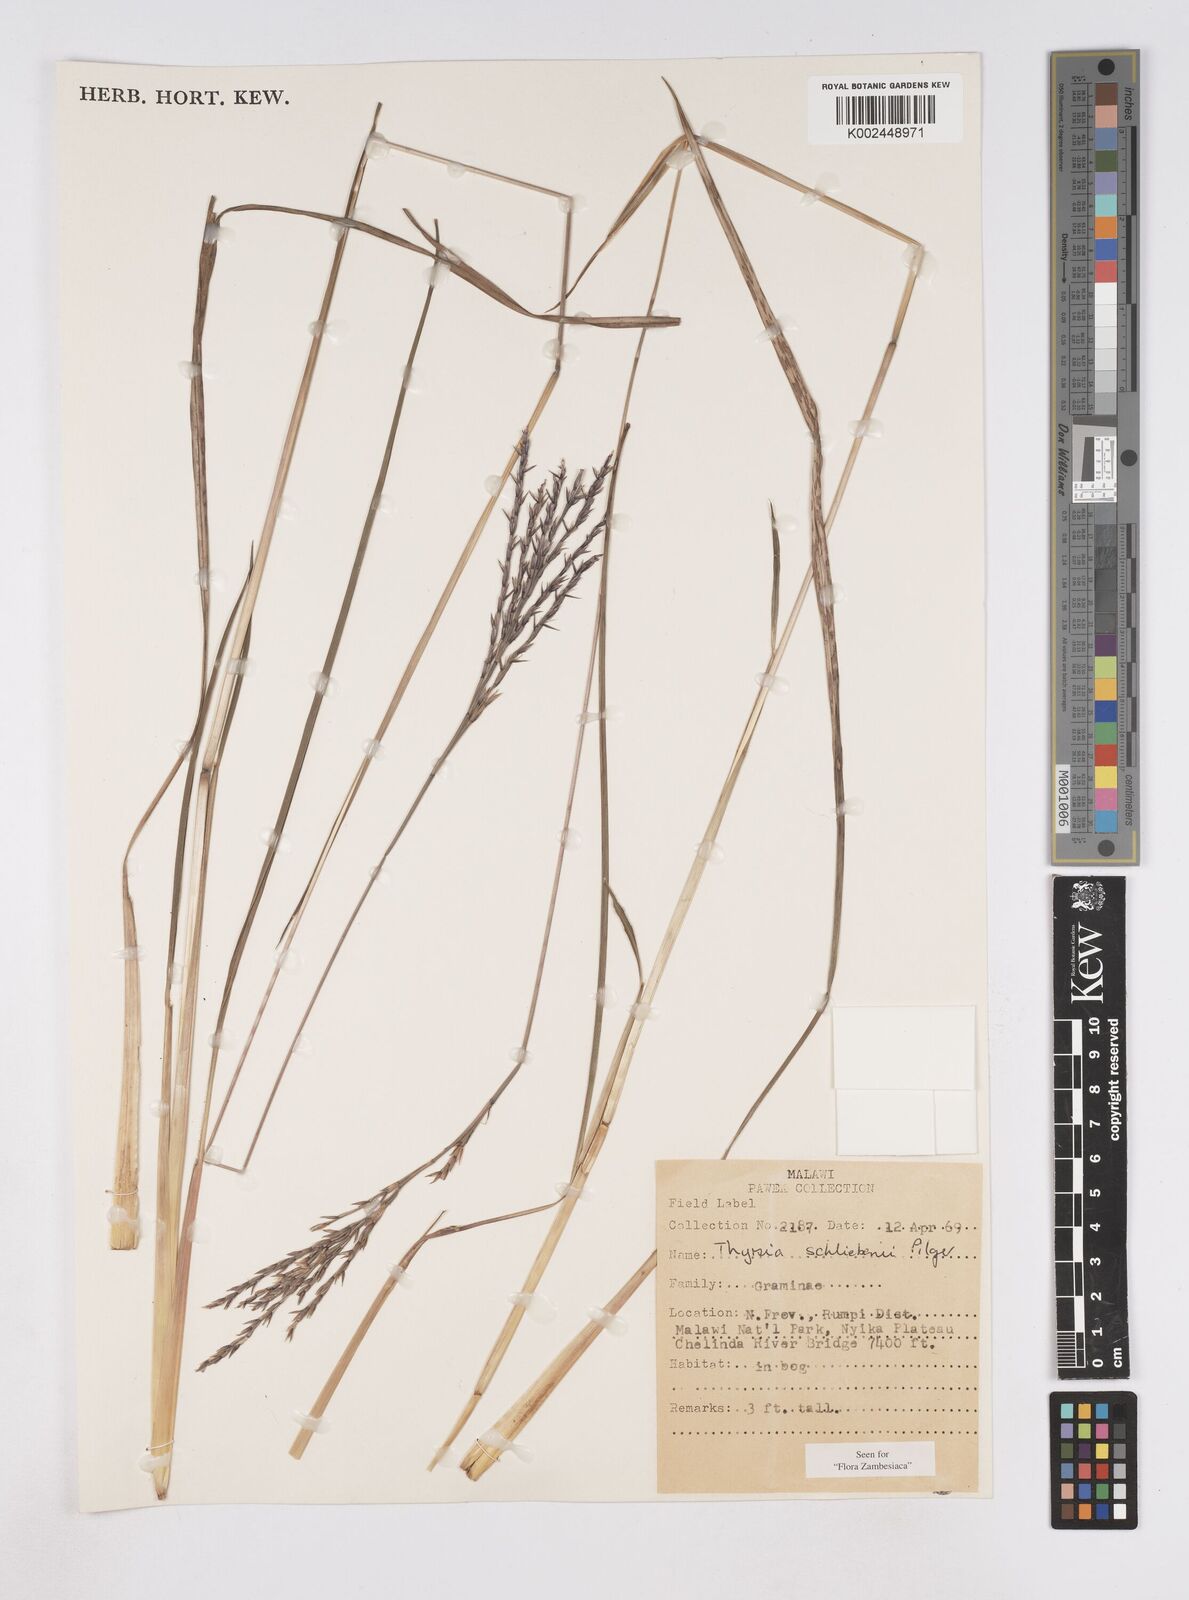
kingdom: Plantae
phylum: Tracheophyta
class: Liliopsida
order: Poales
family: Poaceae
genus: Thyrsia
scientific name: Thyrsia schliebenii
